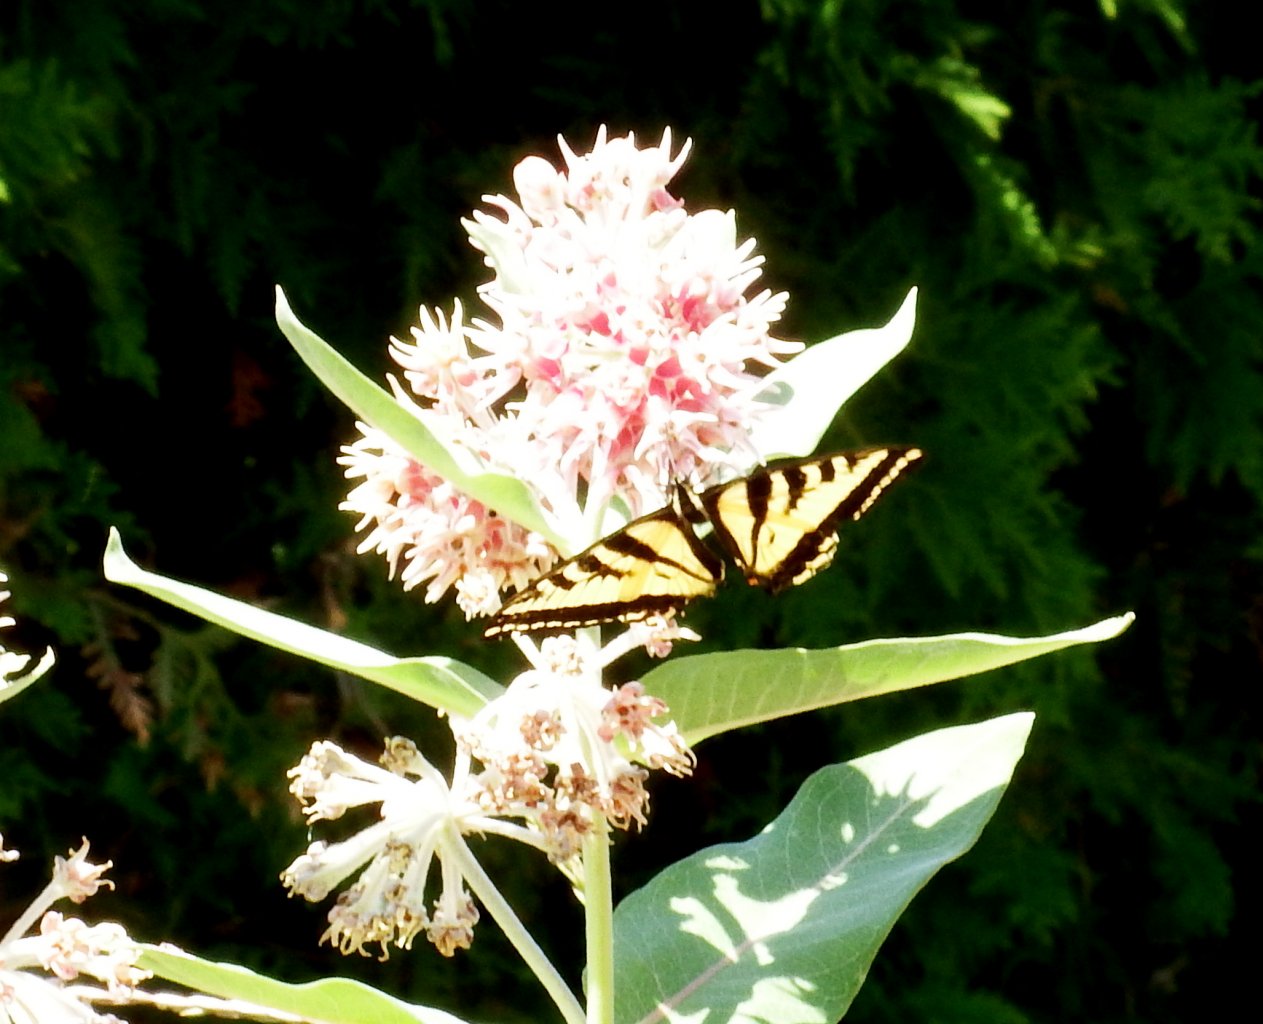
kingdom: Animalia
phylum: Arthropoda
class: Insecta
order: Lepidoptera
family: Papilionidae
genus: Pterourus
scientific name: Pterourus rutulus
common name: Western Tiger Swallowtail
